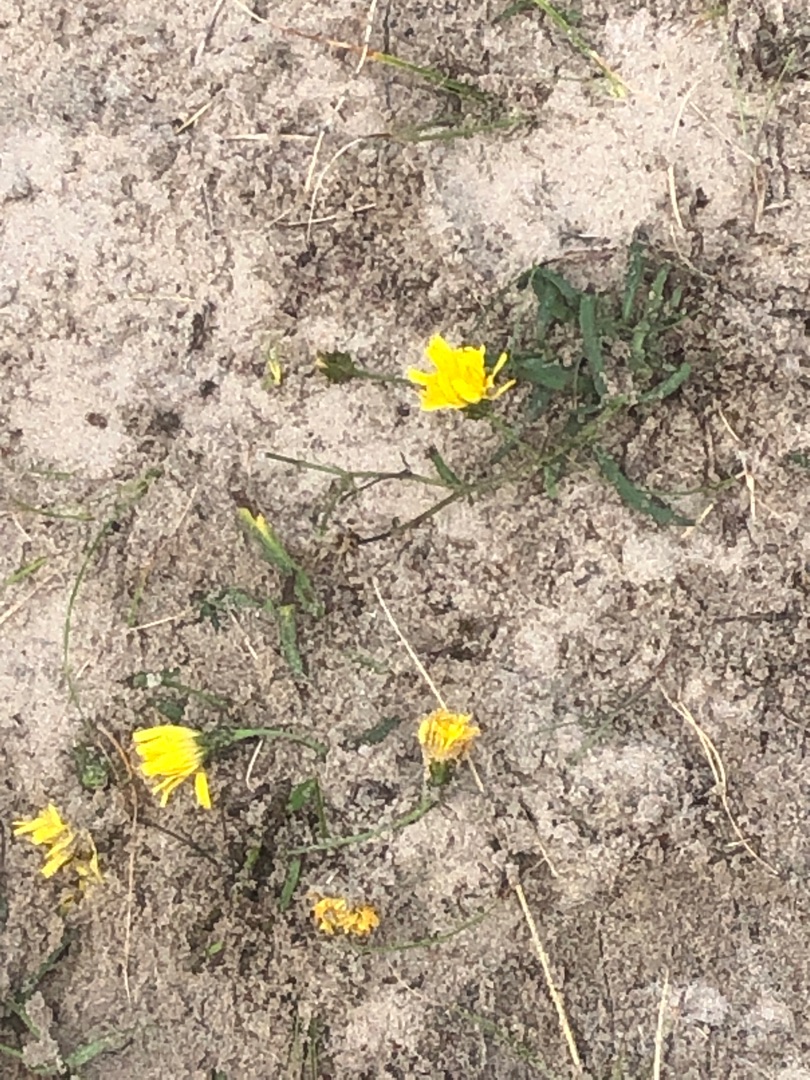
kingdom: Plantae
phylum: Tracheophyta
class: Magnoliopsida
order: Asterales
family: Asteraceae
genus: Hieracium
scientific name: Hieracium umbellatum
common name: Smalbladet høgeurt
